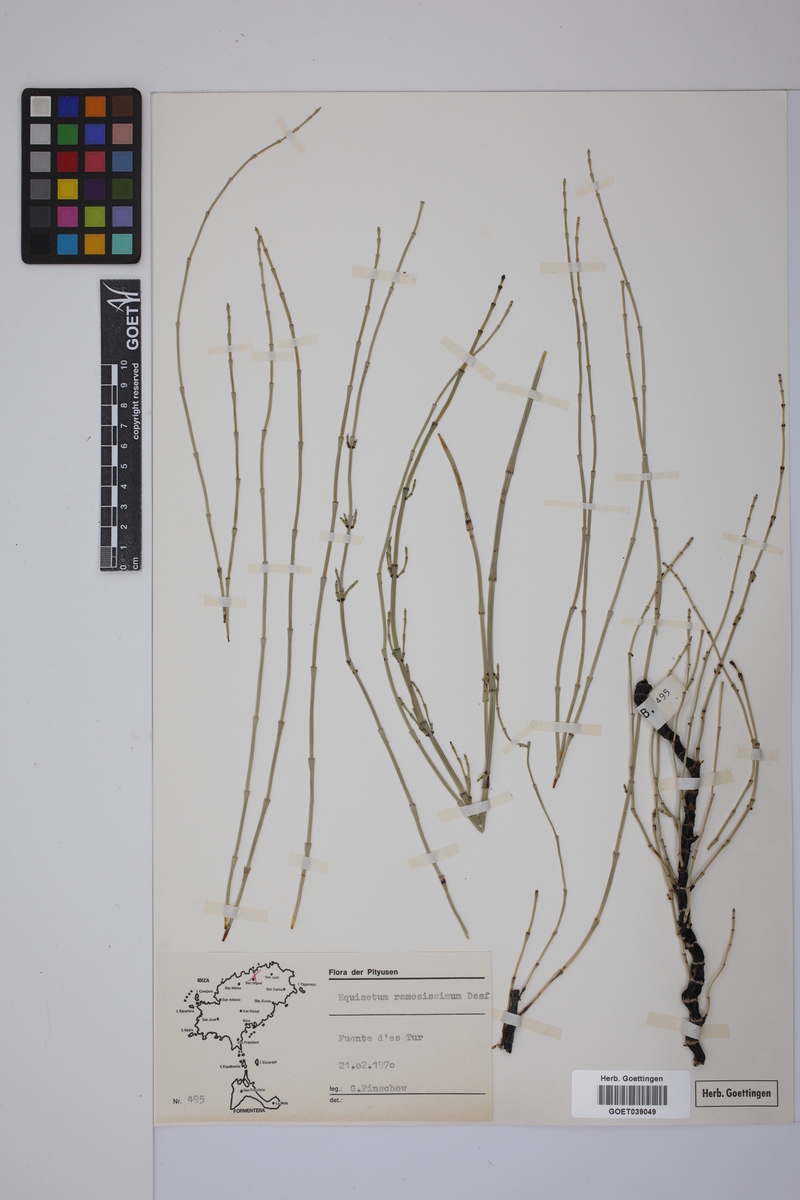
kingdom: Plantae
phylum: Tracheophyta
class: Polypodiopsida
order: Equisetales
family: Equisetaceae
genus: Equisetum
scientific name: Equisetum giganteum
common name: Giant horsetail
